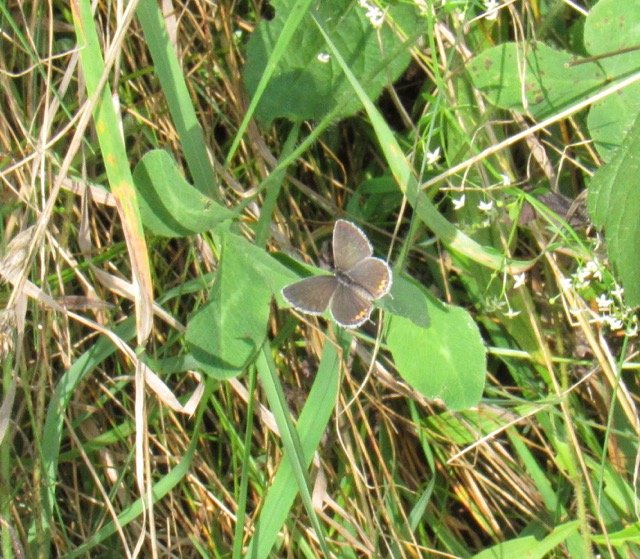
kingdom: Animalia
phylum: Arthropoda
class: Insecta
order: Lepidoptera
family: Lycaenidae
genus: Elkalyce
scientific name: Elkalyce comyntas
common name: Eastern Tailed-Blue
